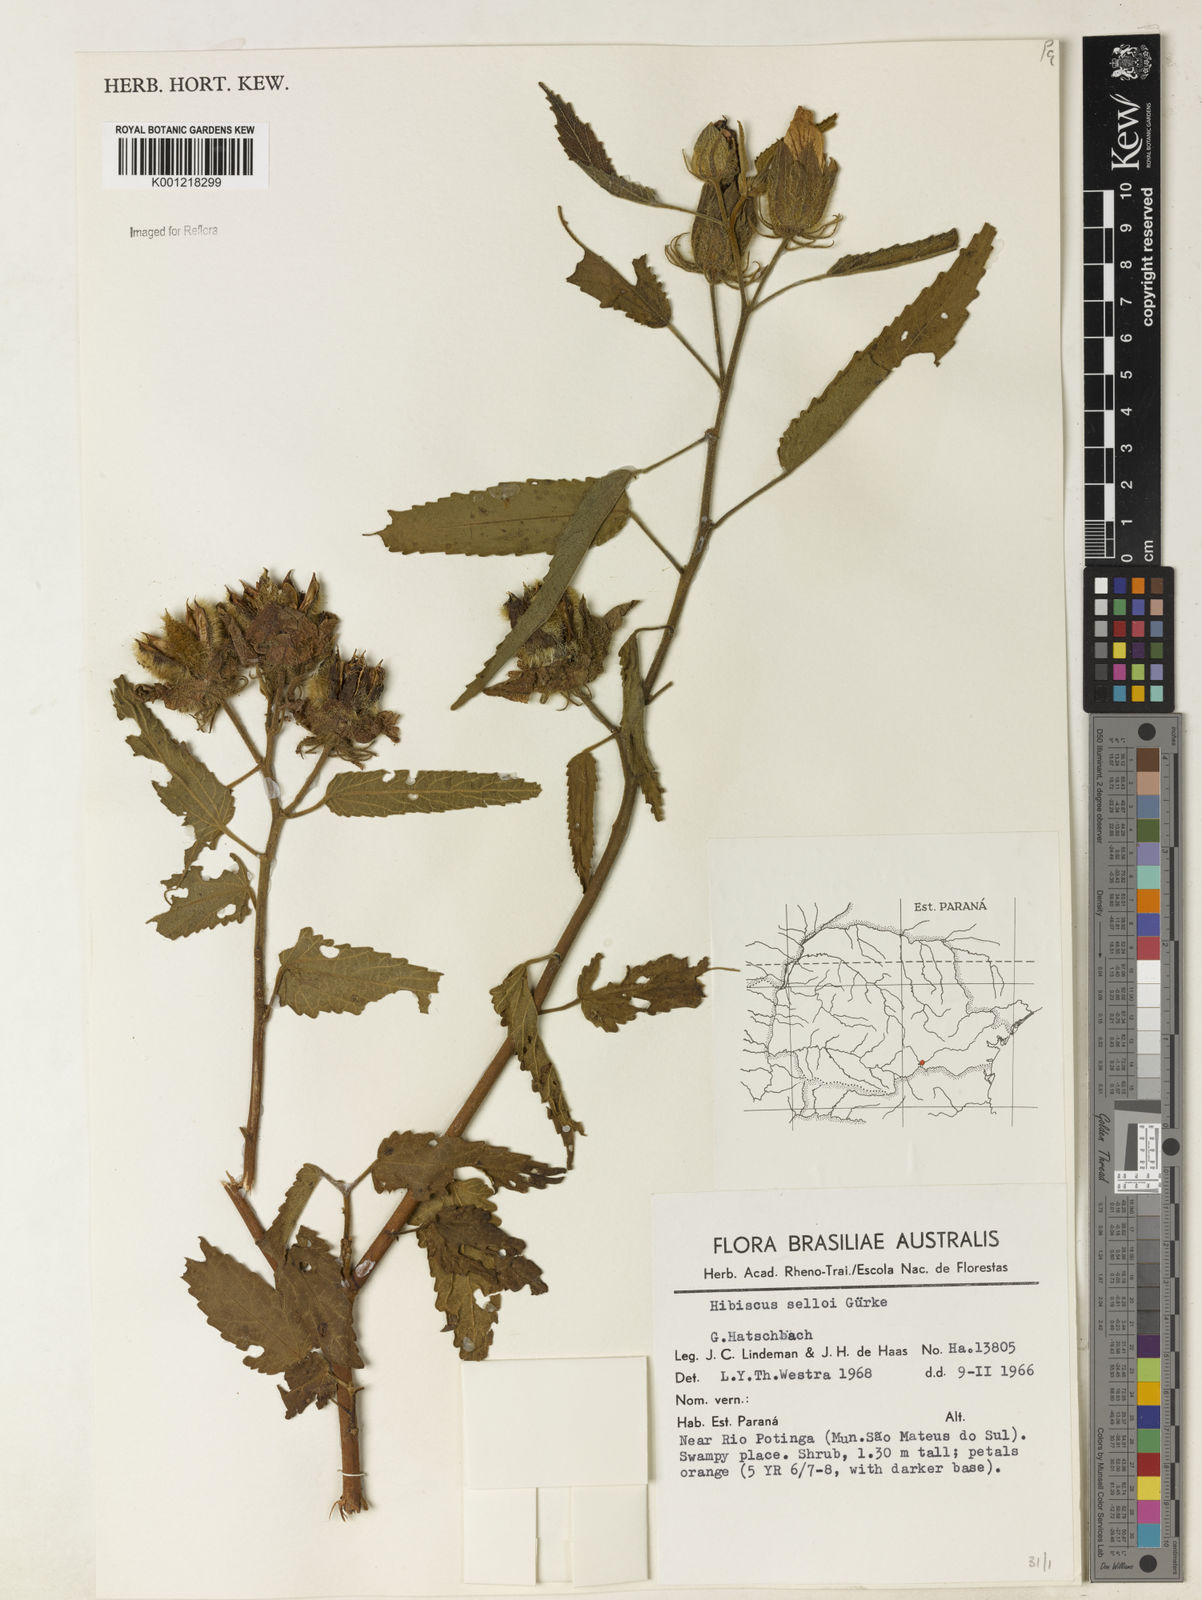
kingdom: Plantae
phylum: Tracheophyta
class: Magnoliopsida
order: Malvales
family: Malvaceae
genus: Hibiscus
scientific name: Hibiscus
